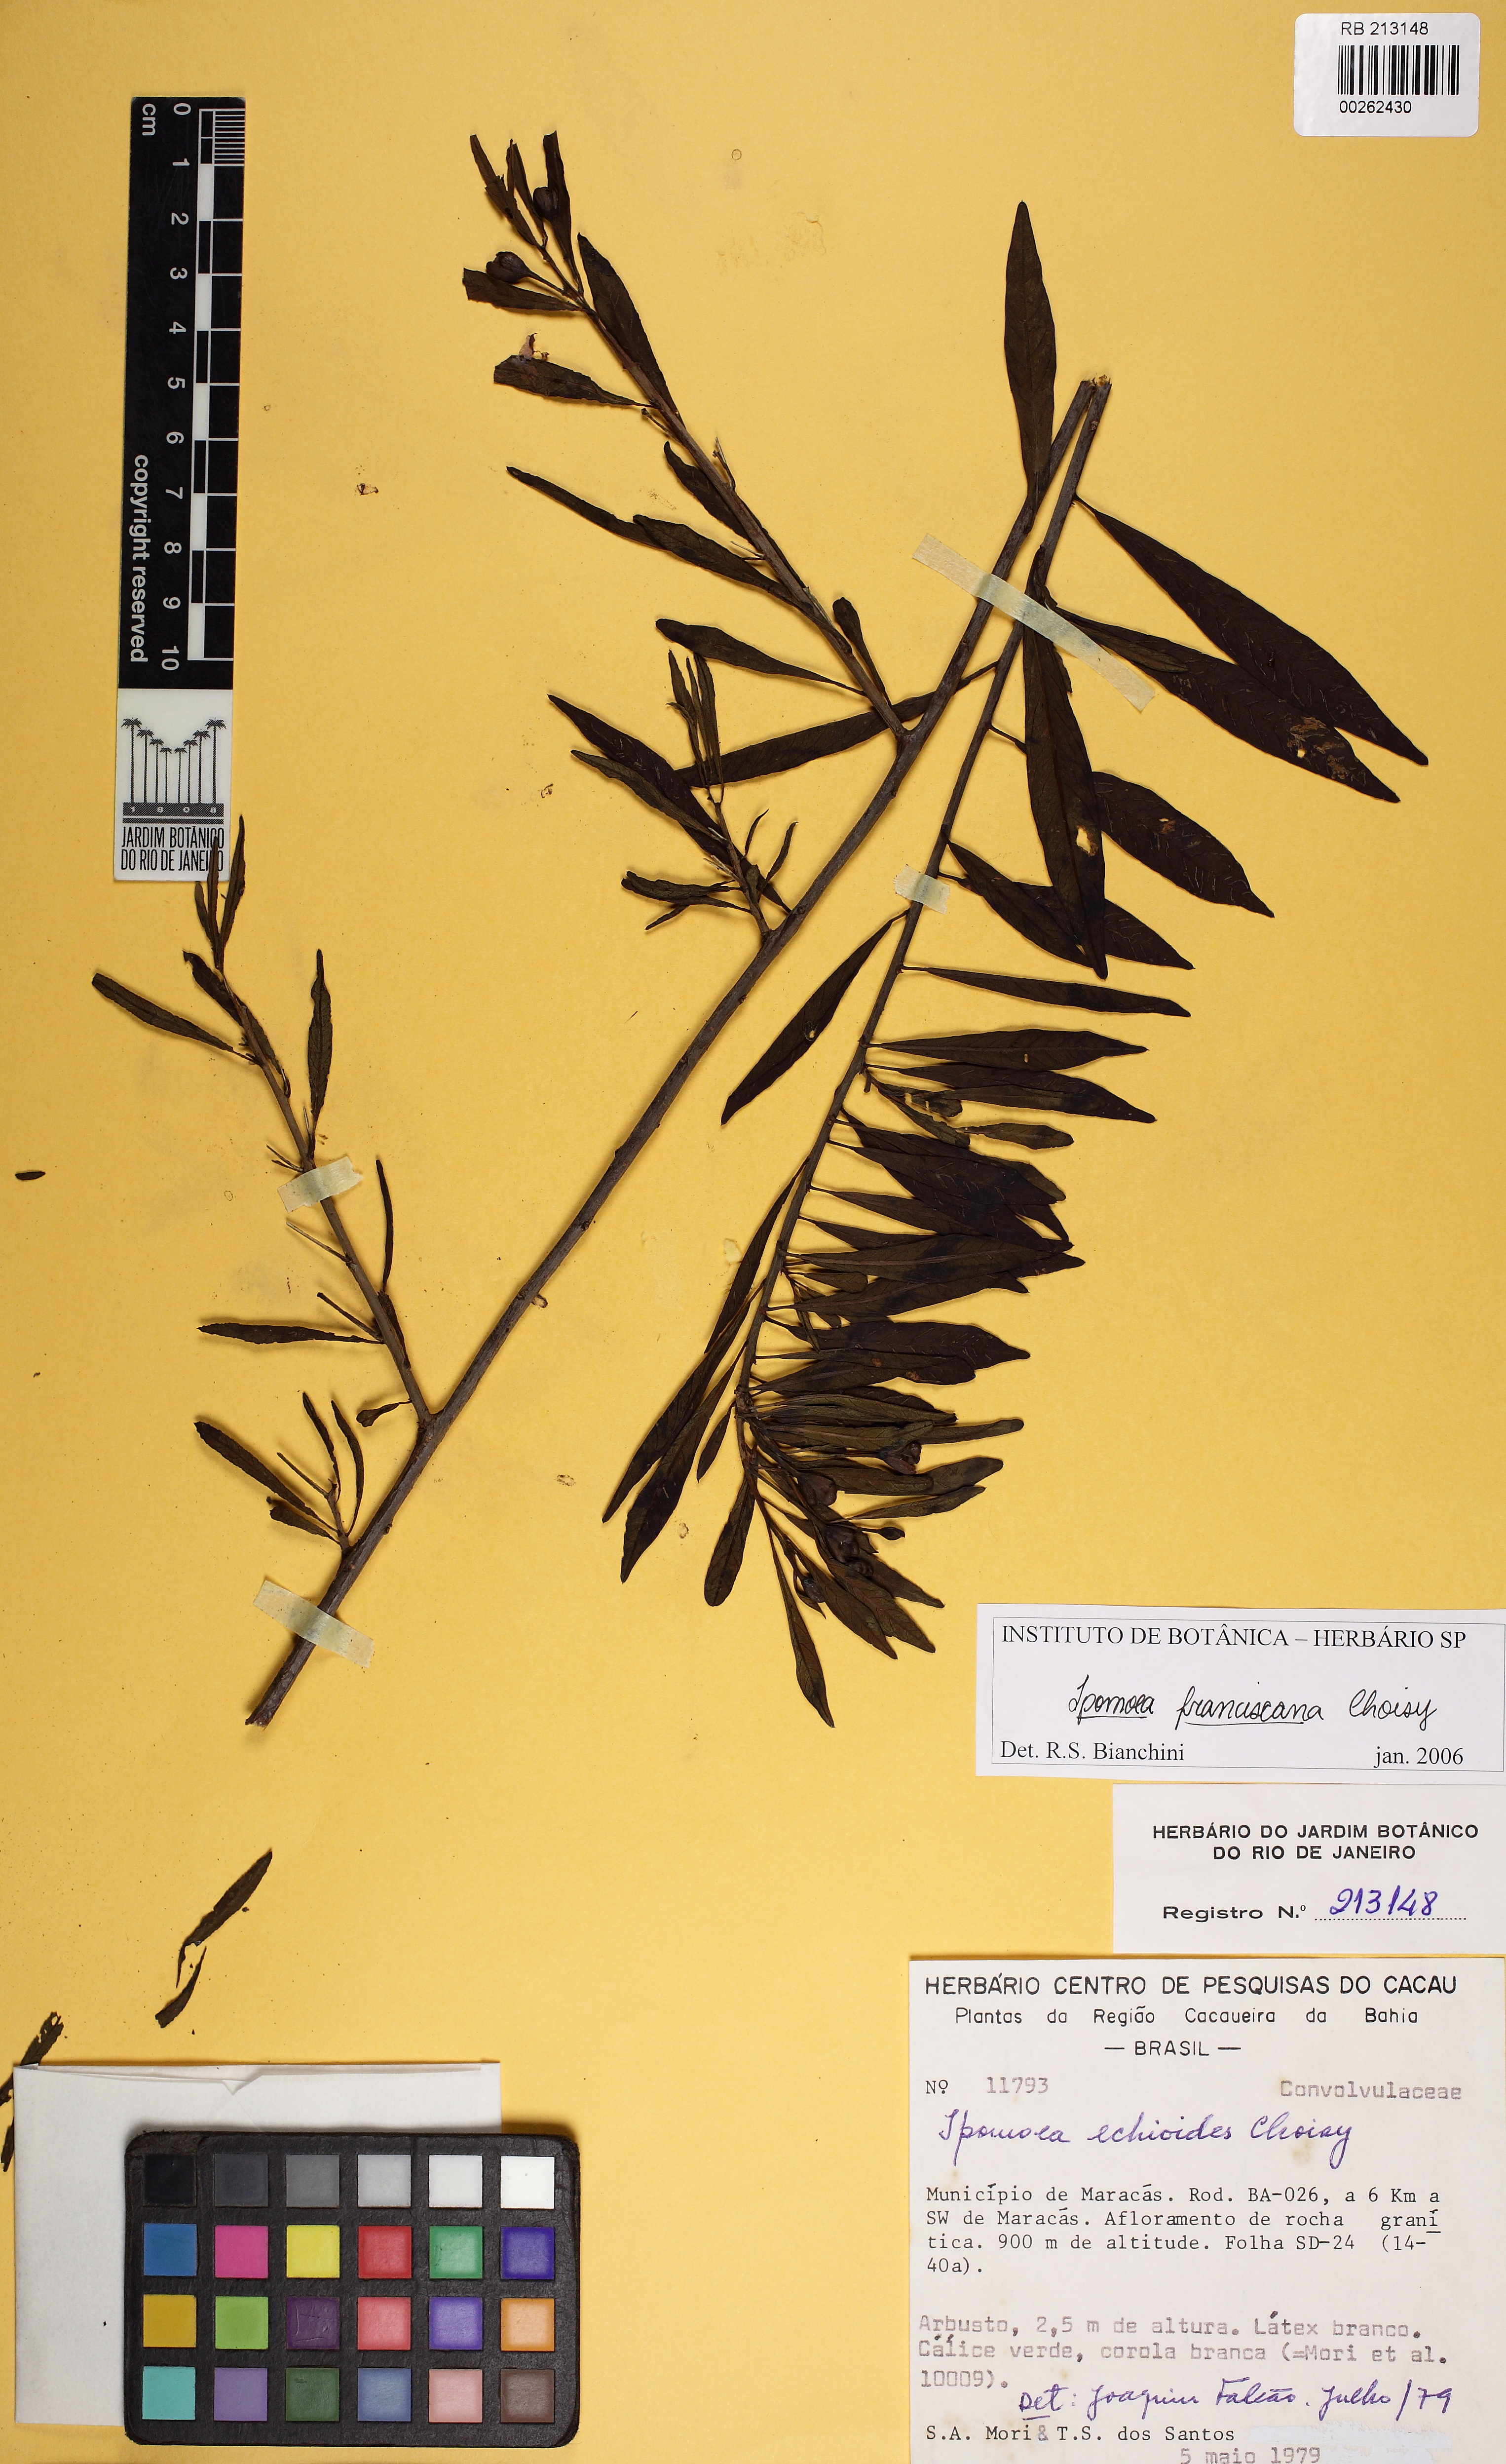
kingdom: Plantae
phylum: Tracheophyta
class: Magnoliopsida
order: Solanales
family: Convolvulaceae
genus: Ipomoea
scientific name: Ipomoea franciscana
